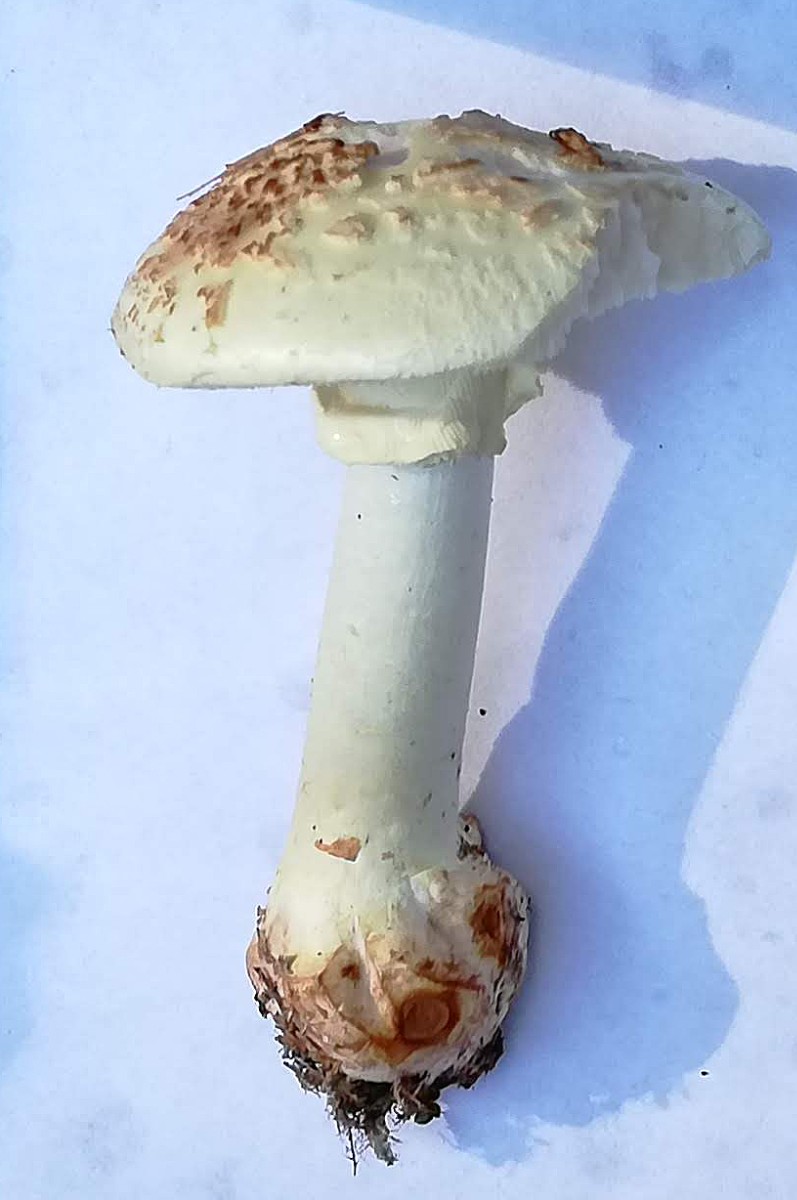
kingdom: Fungi
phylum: Basidiomycota
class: Agaricomycetes
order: Agaricales
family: Amanitaceae
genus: Amanita
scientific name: Amanita citrina
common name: kugleknoldet fluesvamp
